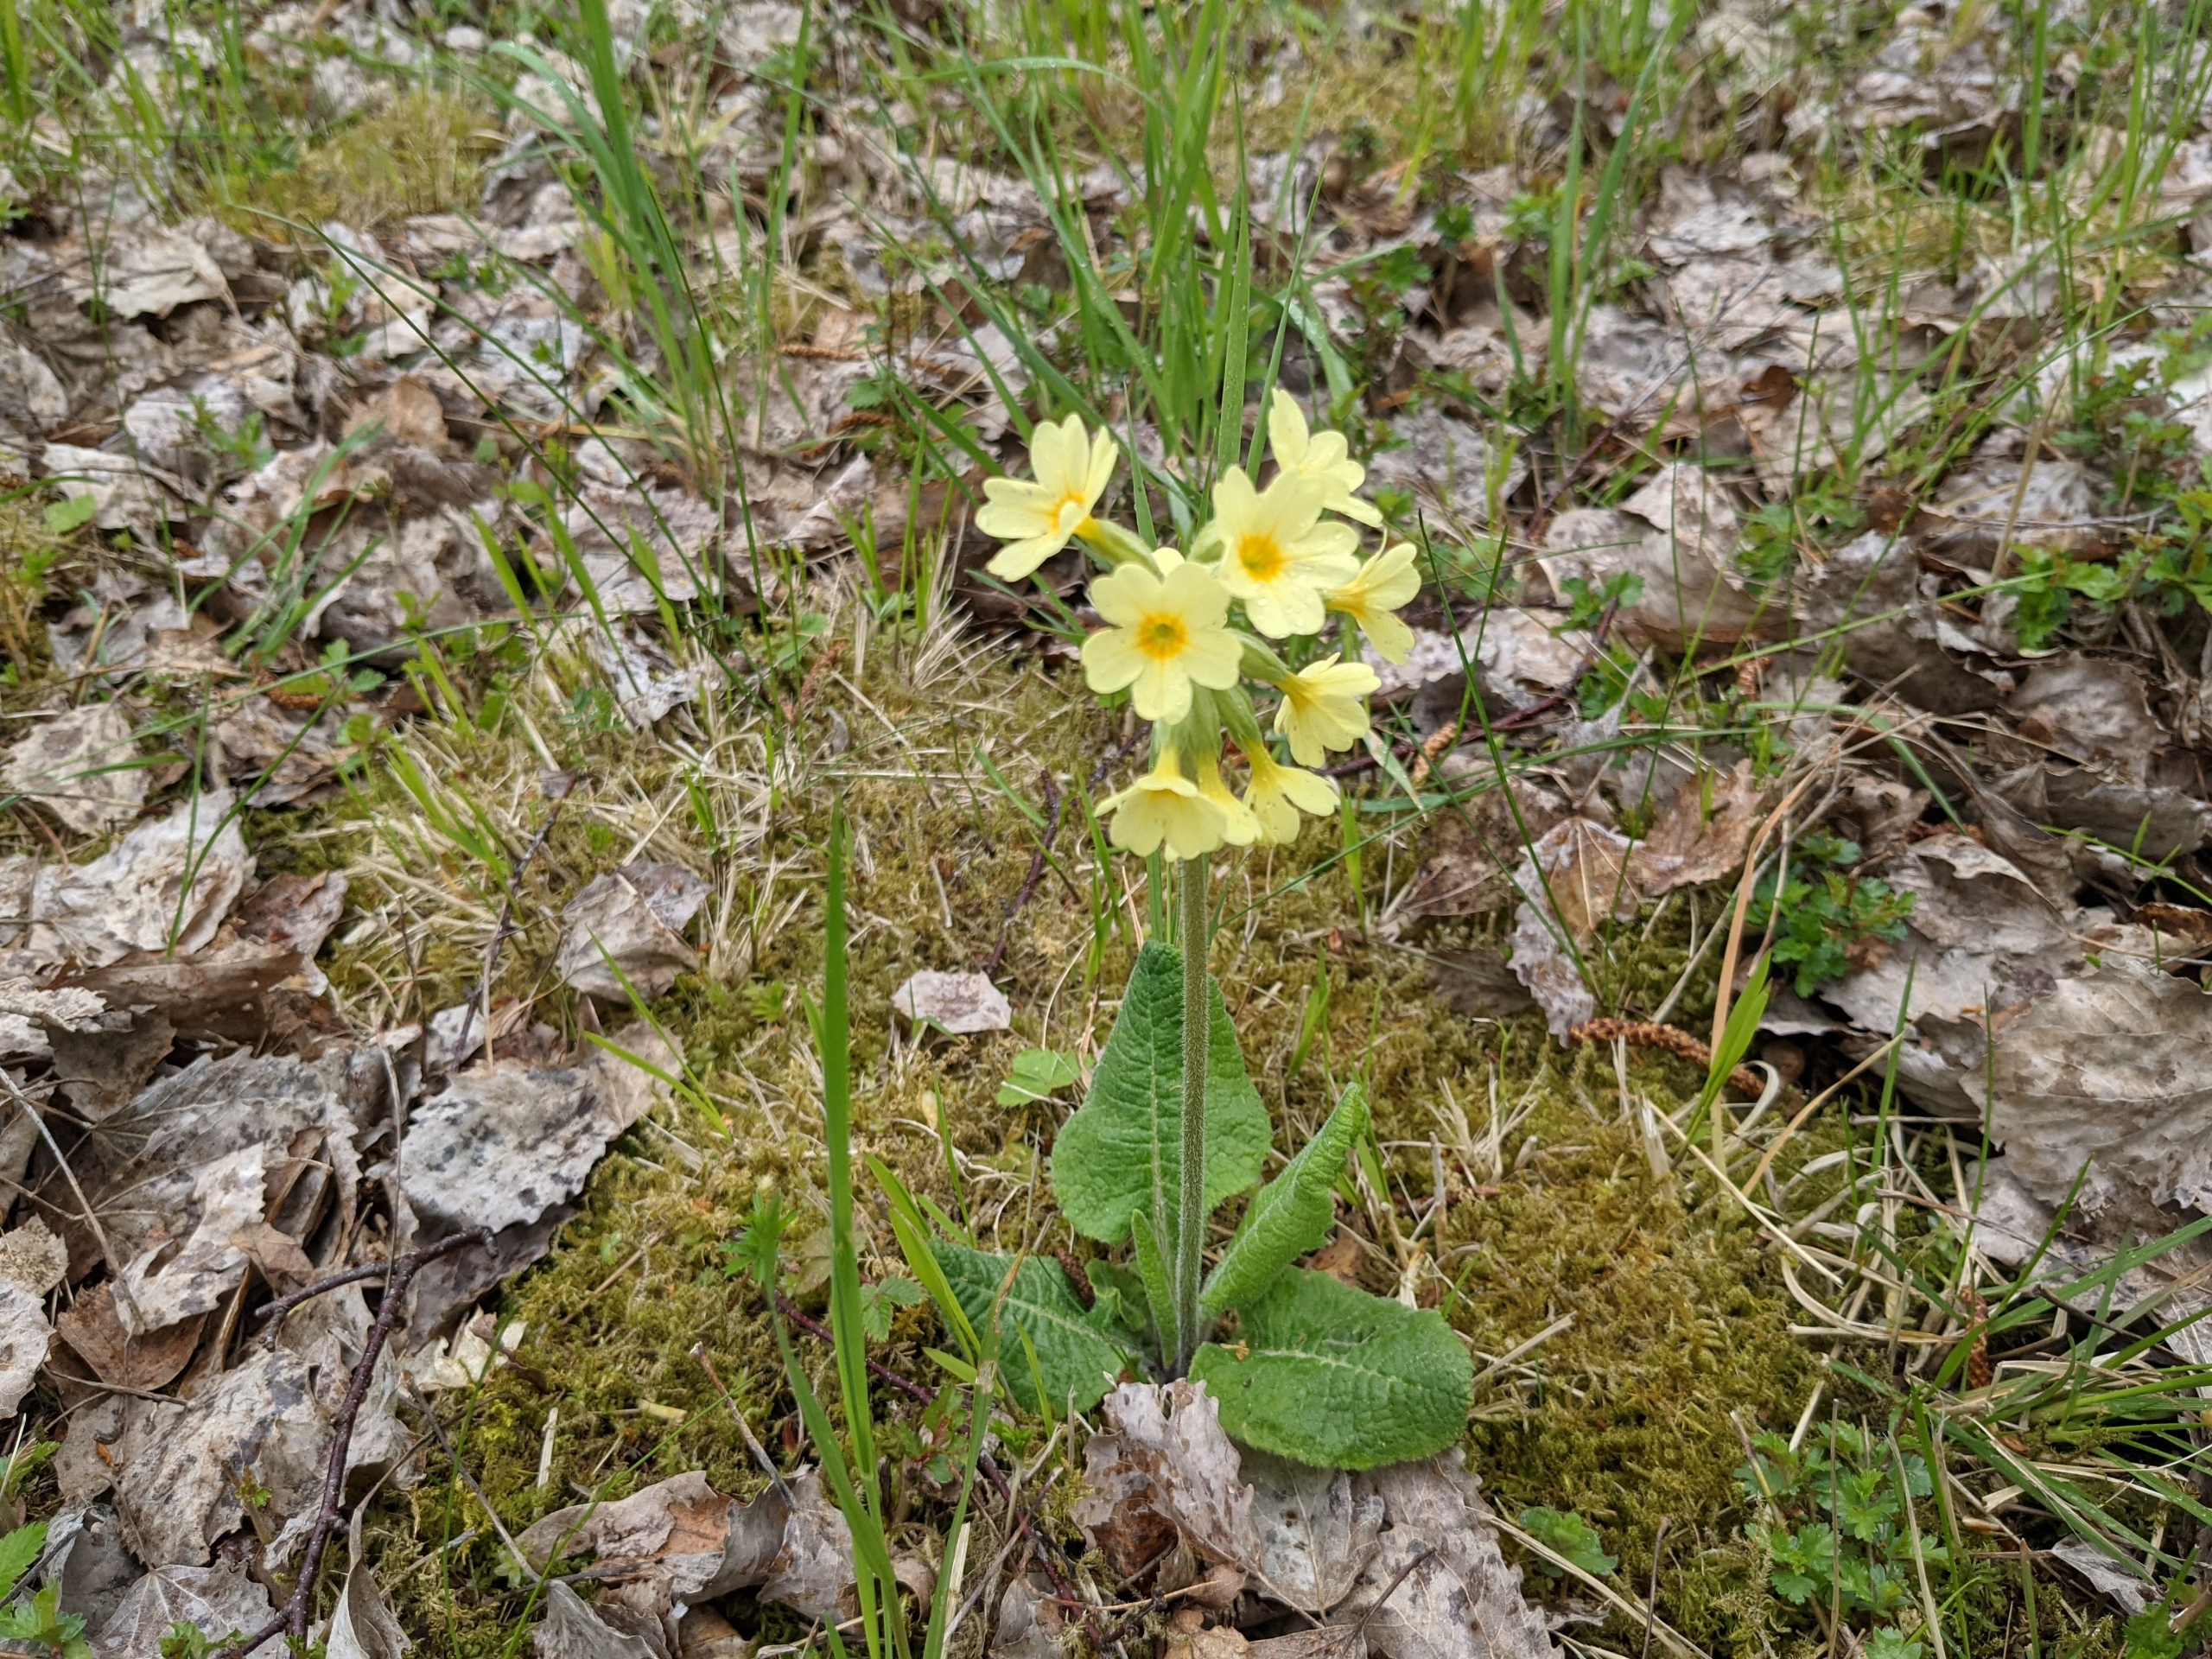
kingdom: Plantae
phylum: Tracheophyta
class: Magnoliopsida
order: Ericales
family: Primulaceae
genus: Primula
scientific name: Primula elatior
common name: Fladkravet kodriver
